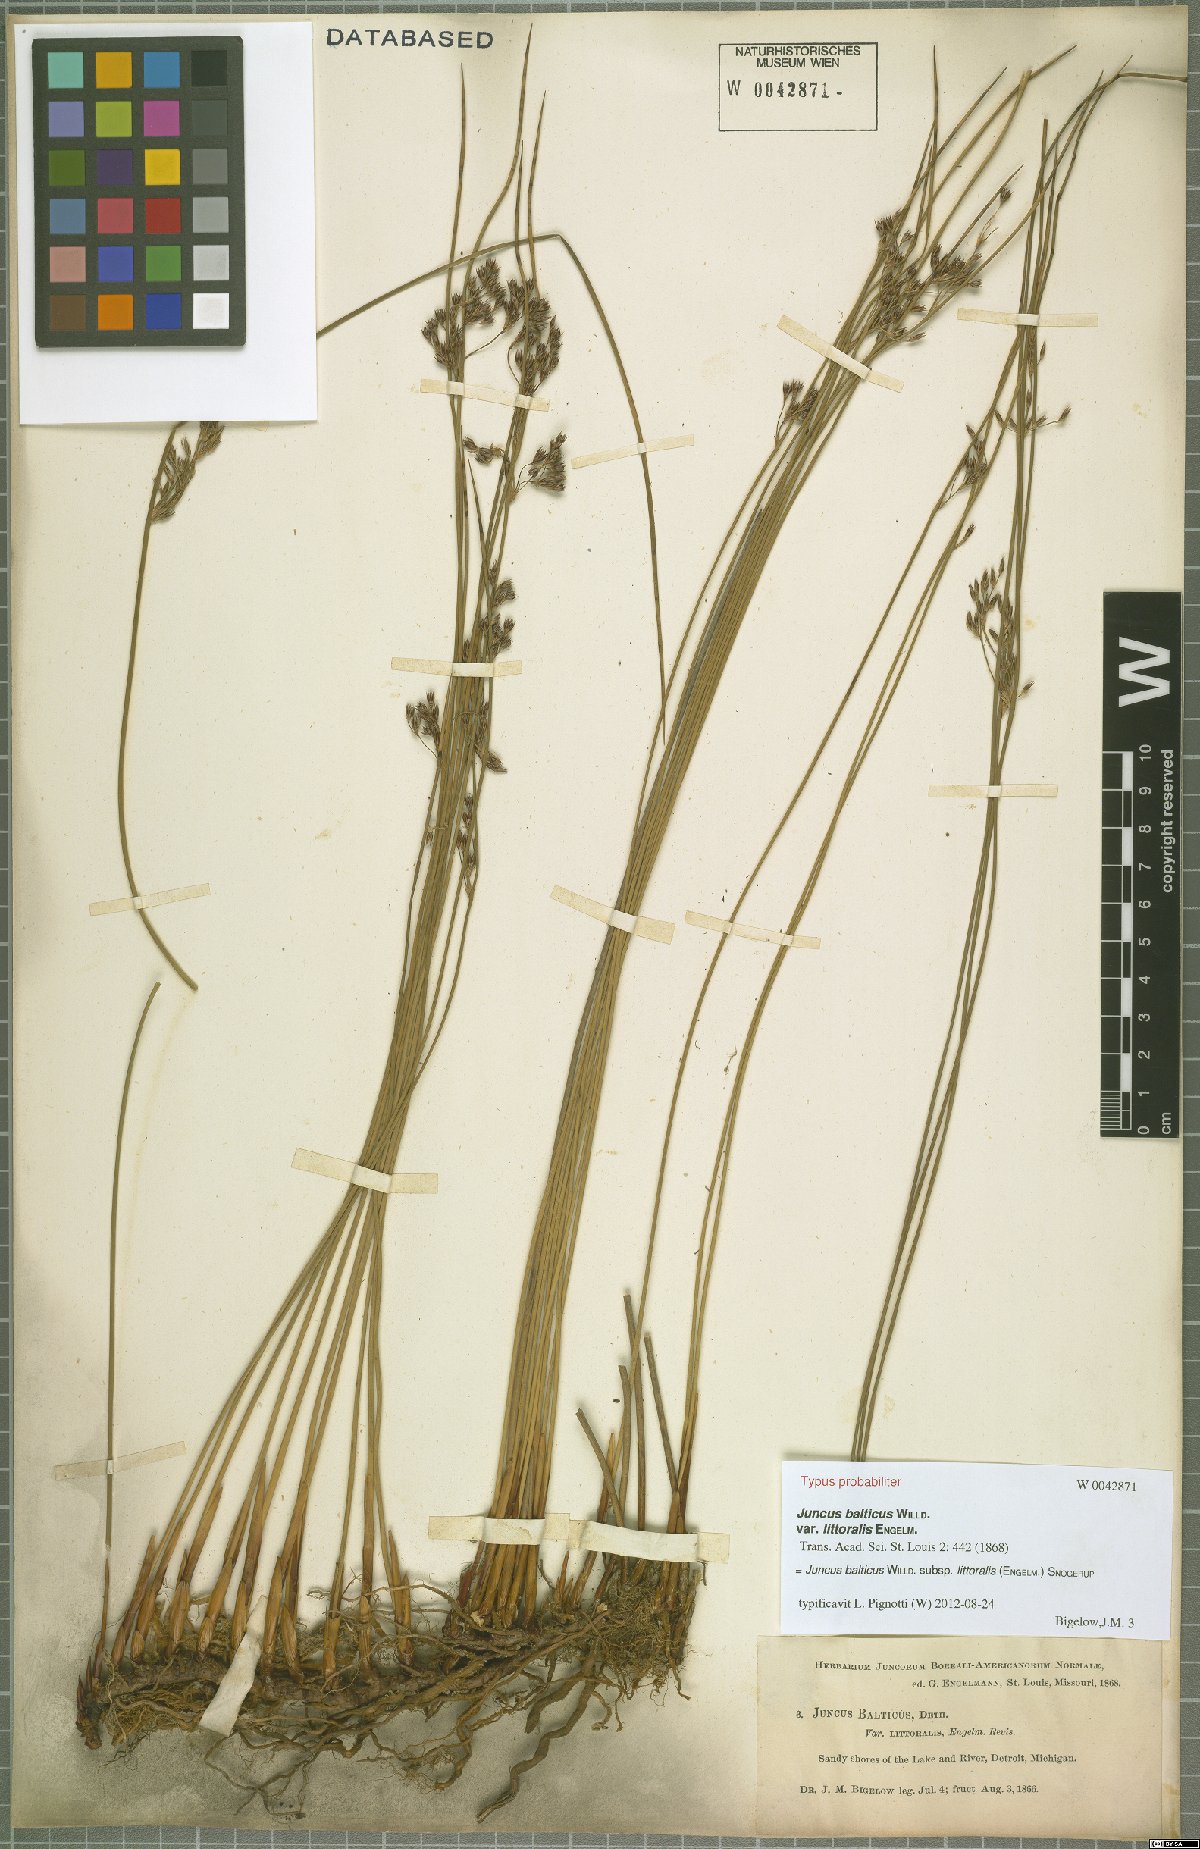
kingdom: Plantae
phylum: Tracheophyta
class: Liliopsida
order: Poales
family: Juncaceae
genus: Juncus
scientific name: Juncus balticus
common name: Baltic rush
